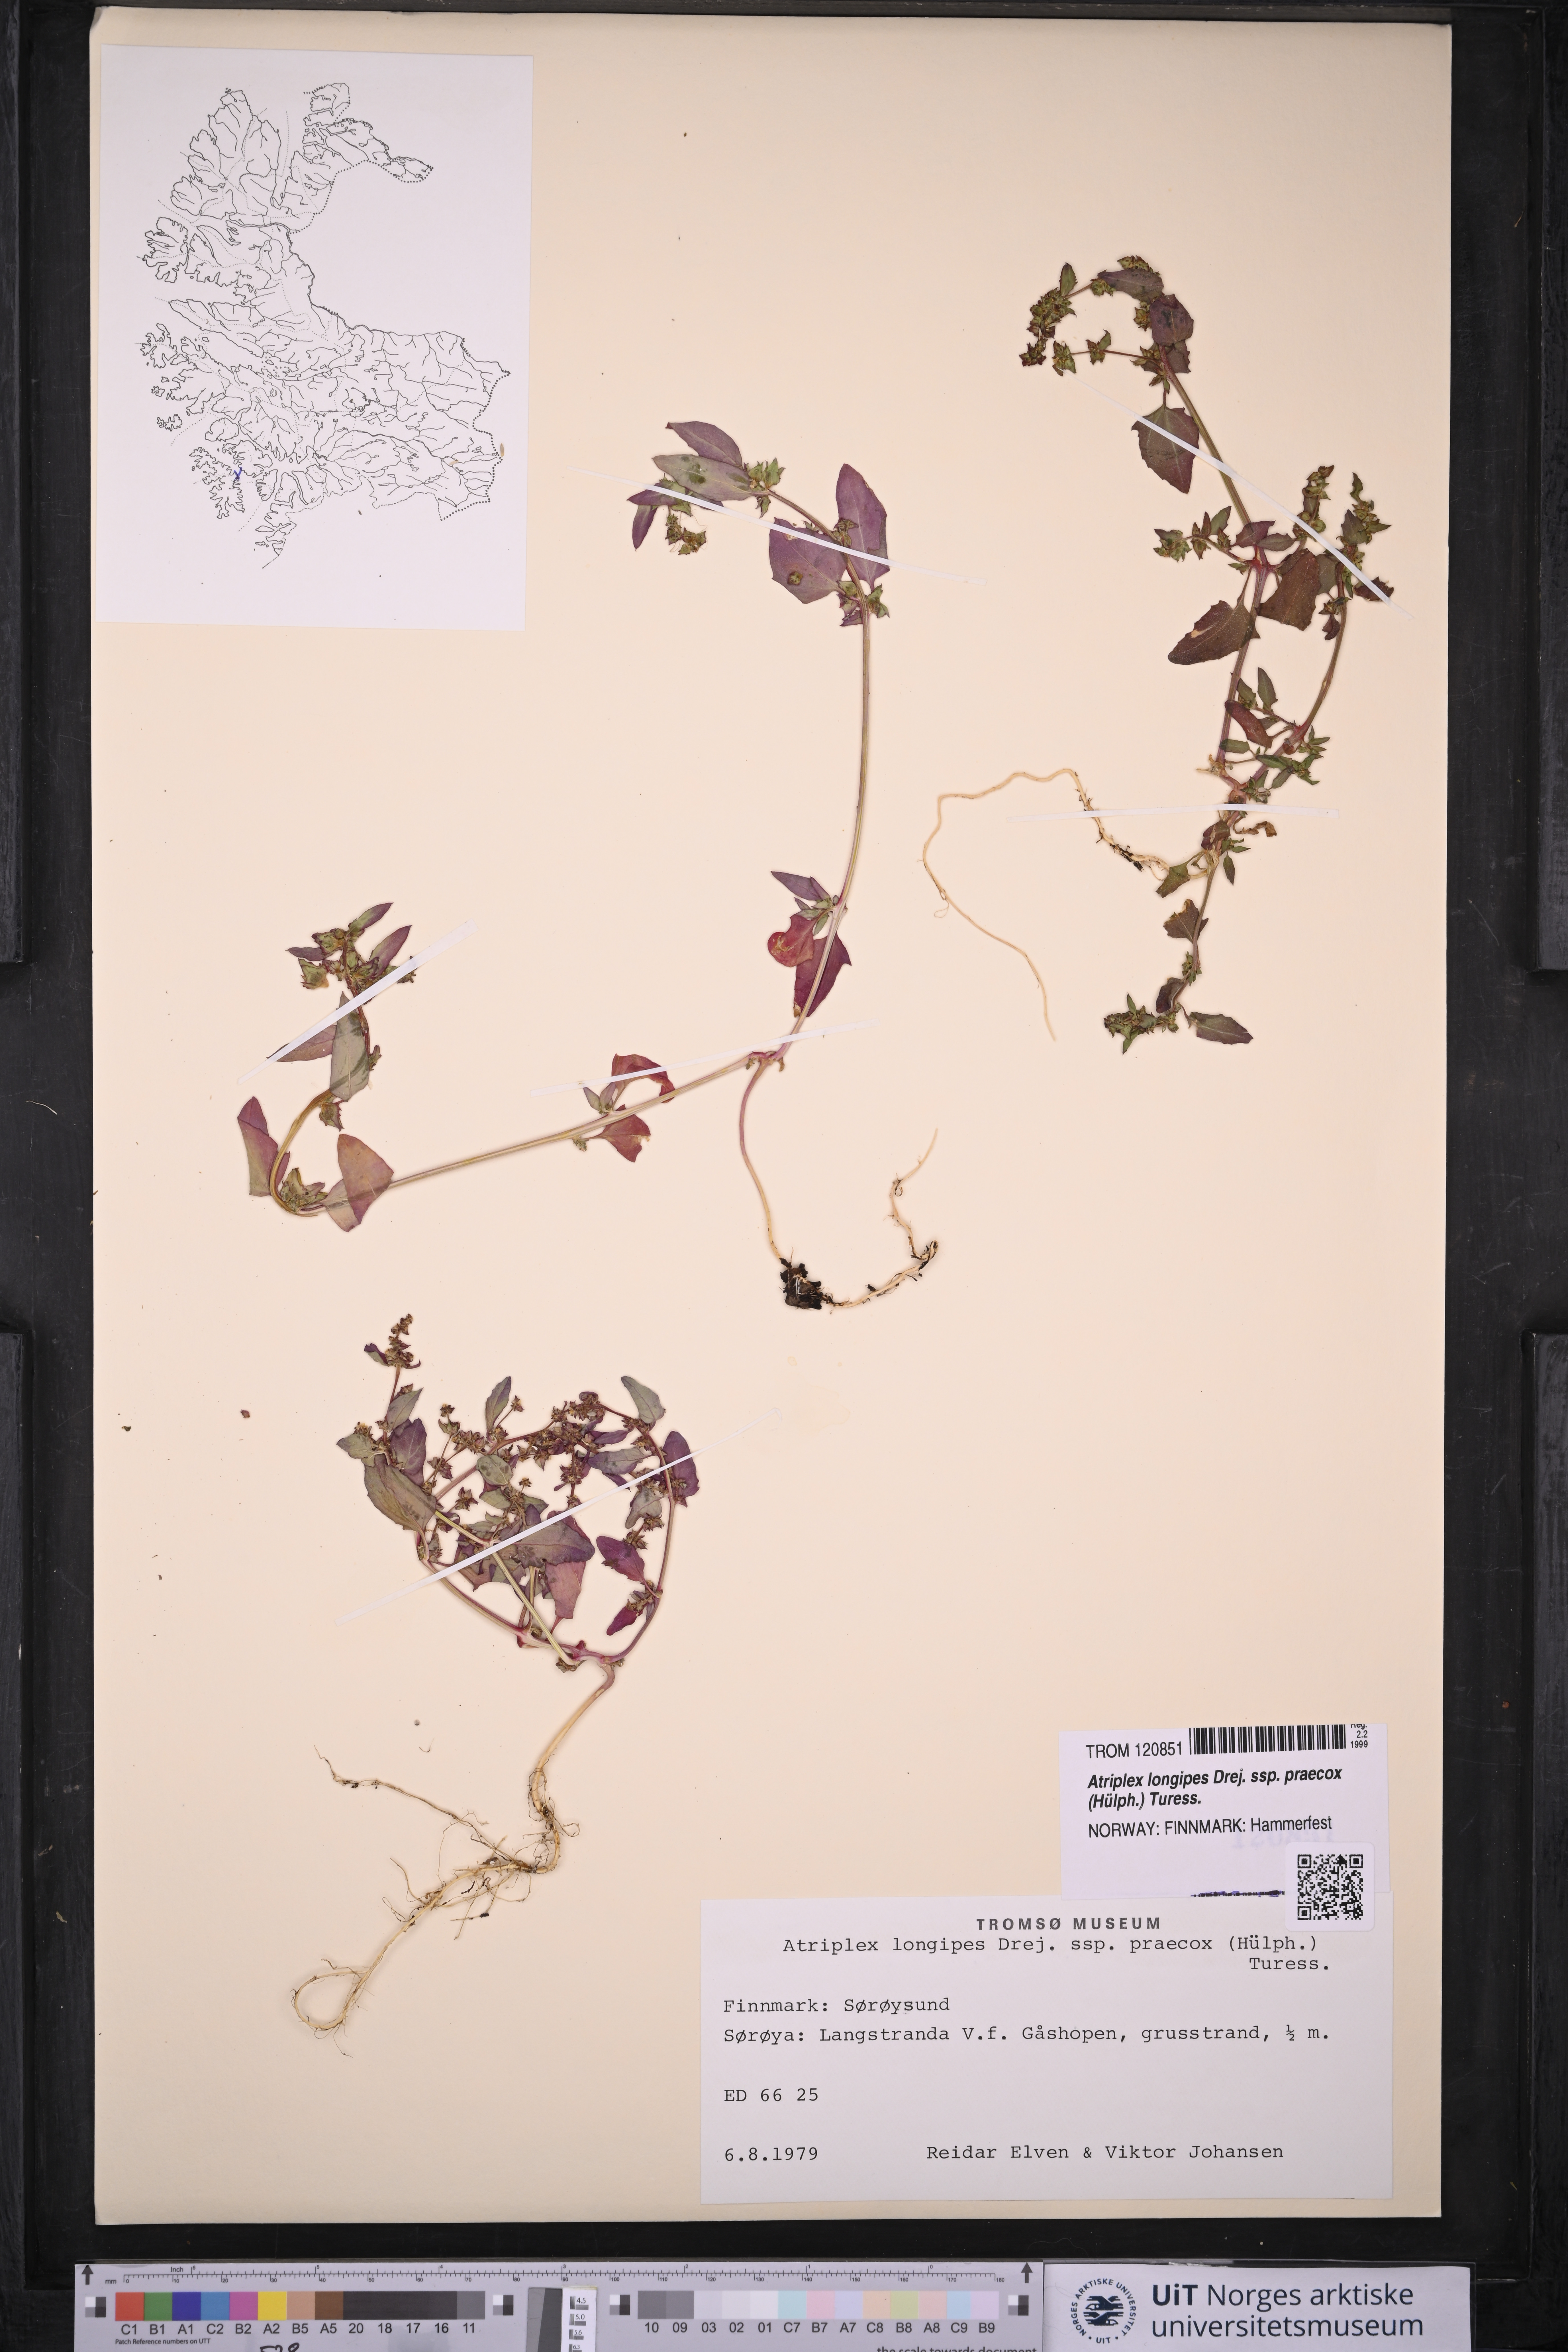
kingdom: Plantae
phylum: Tracheophyta
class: Magnoliopsida
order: Caryophyllales
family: Amaranthaceae
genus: Atriplex
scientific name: Atriplex praecox
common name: Early orache
